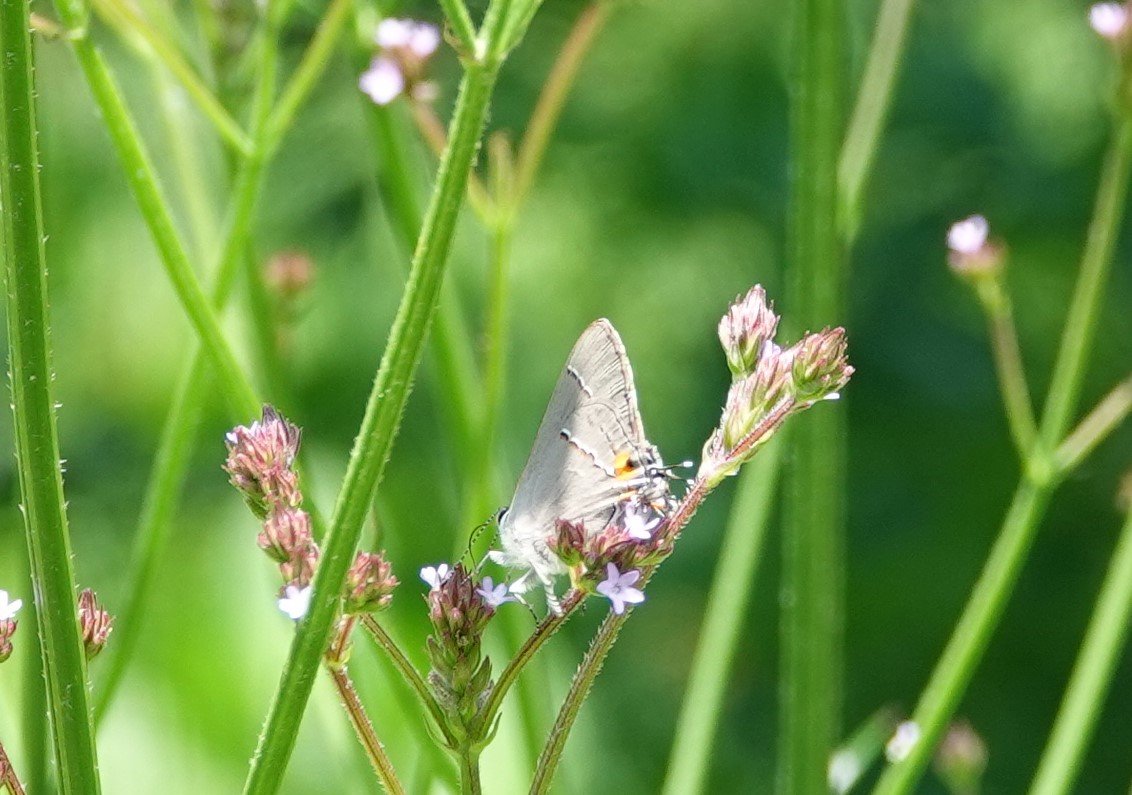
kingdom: Animalia
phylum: Arthropoda
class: Insecta
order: Lepidoptera
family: Lycaenidae
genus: Strymon
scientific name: Strymon melinus
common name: Gray Hairstreak
